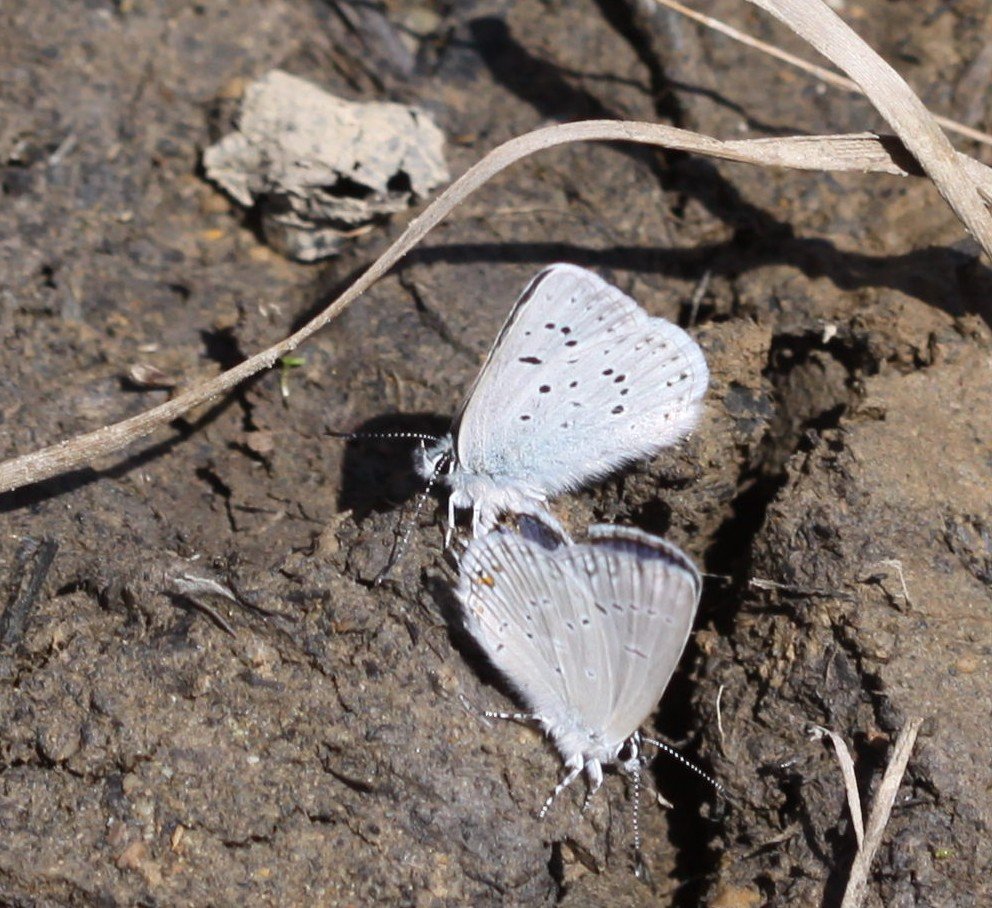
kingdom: Animalia
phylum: Arthropoda
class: Insecta
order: Lepidoptera
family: Lycaenidae
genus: Plebejus
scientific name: Plebejus saepiolus
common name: Greenish Blue
